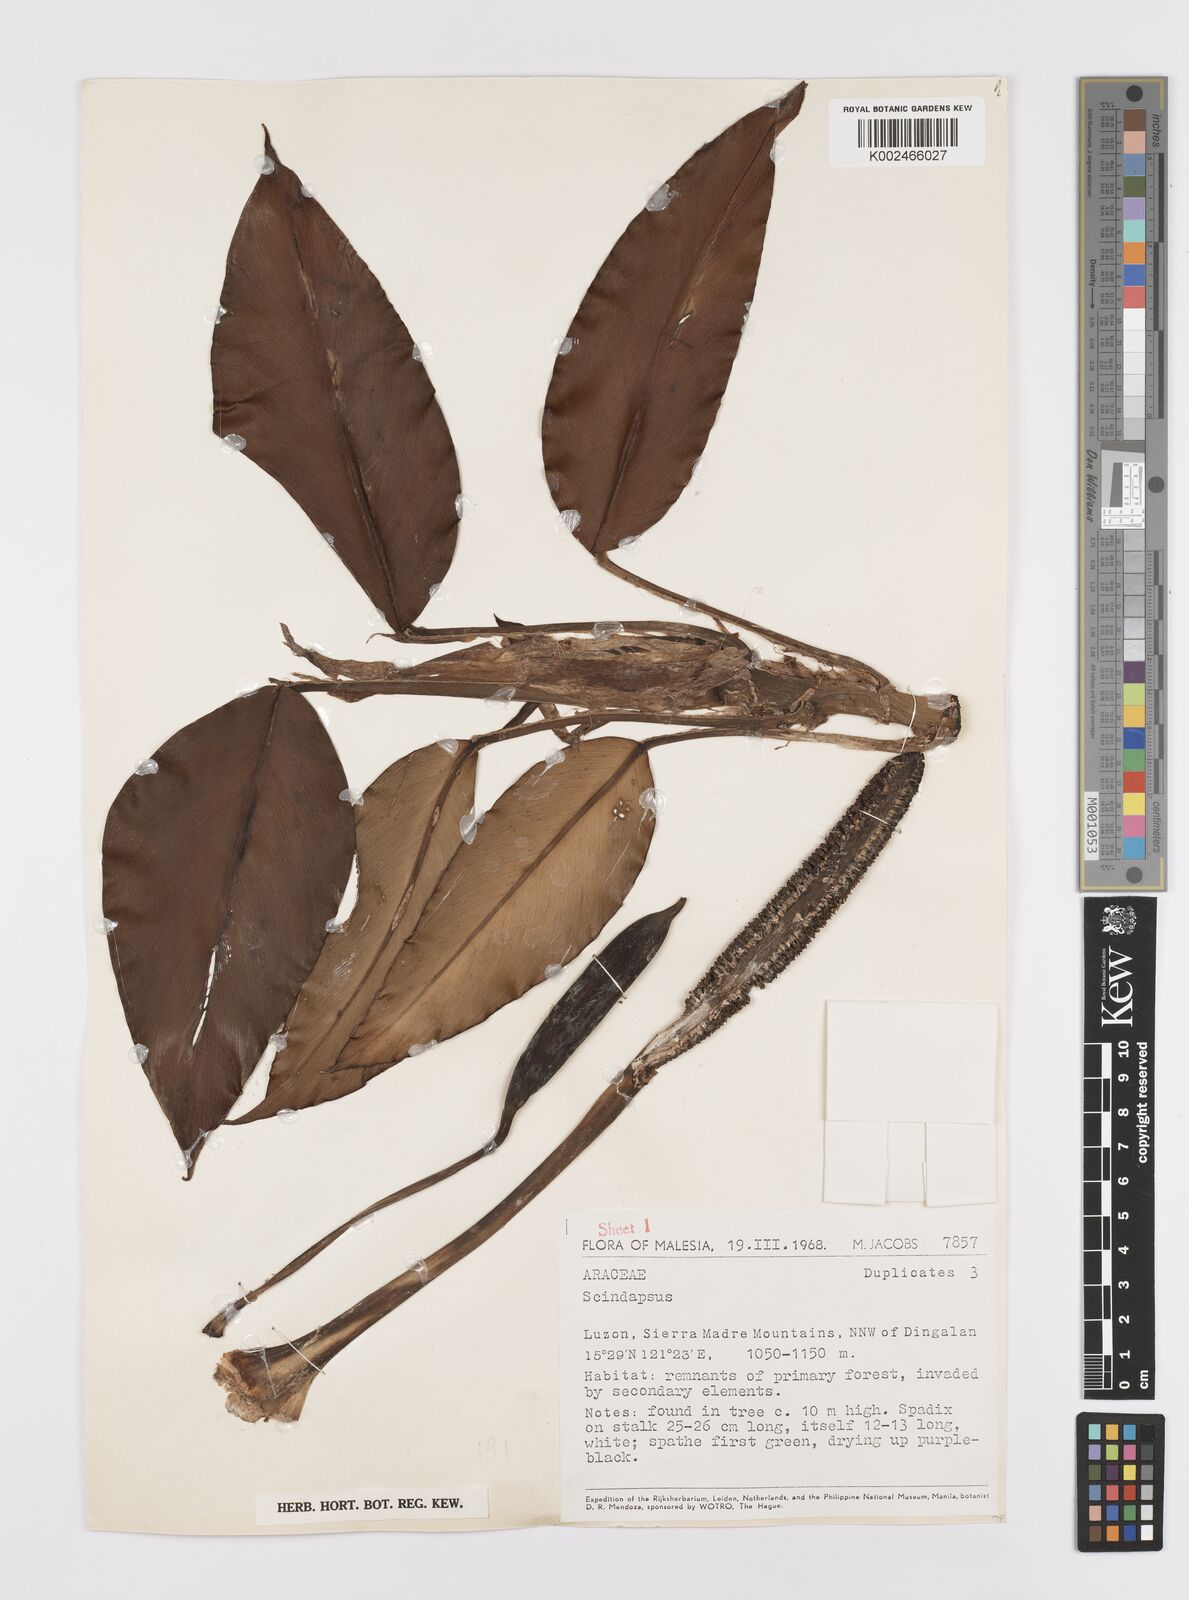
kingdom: Plantae
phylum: Tracheophyta
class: Liliopsida
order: Alismatales
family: Araceae
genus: Rhaphidophora
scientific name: Rhaphidophora acuminata
